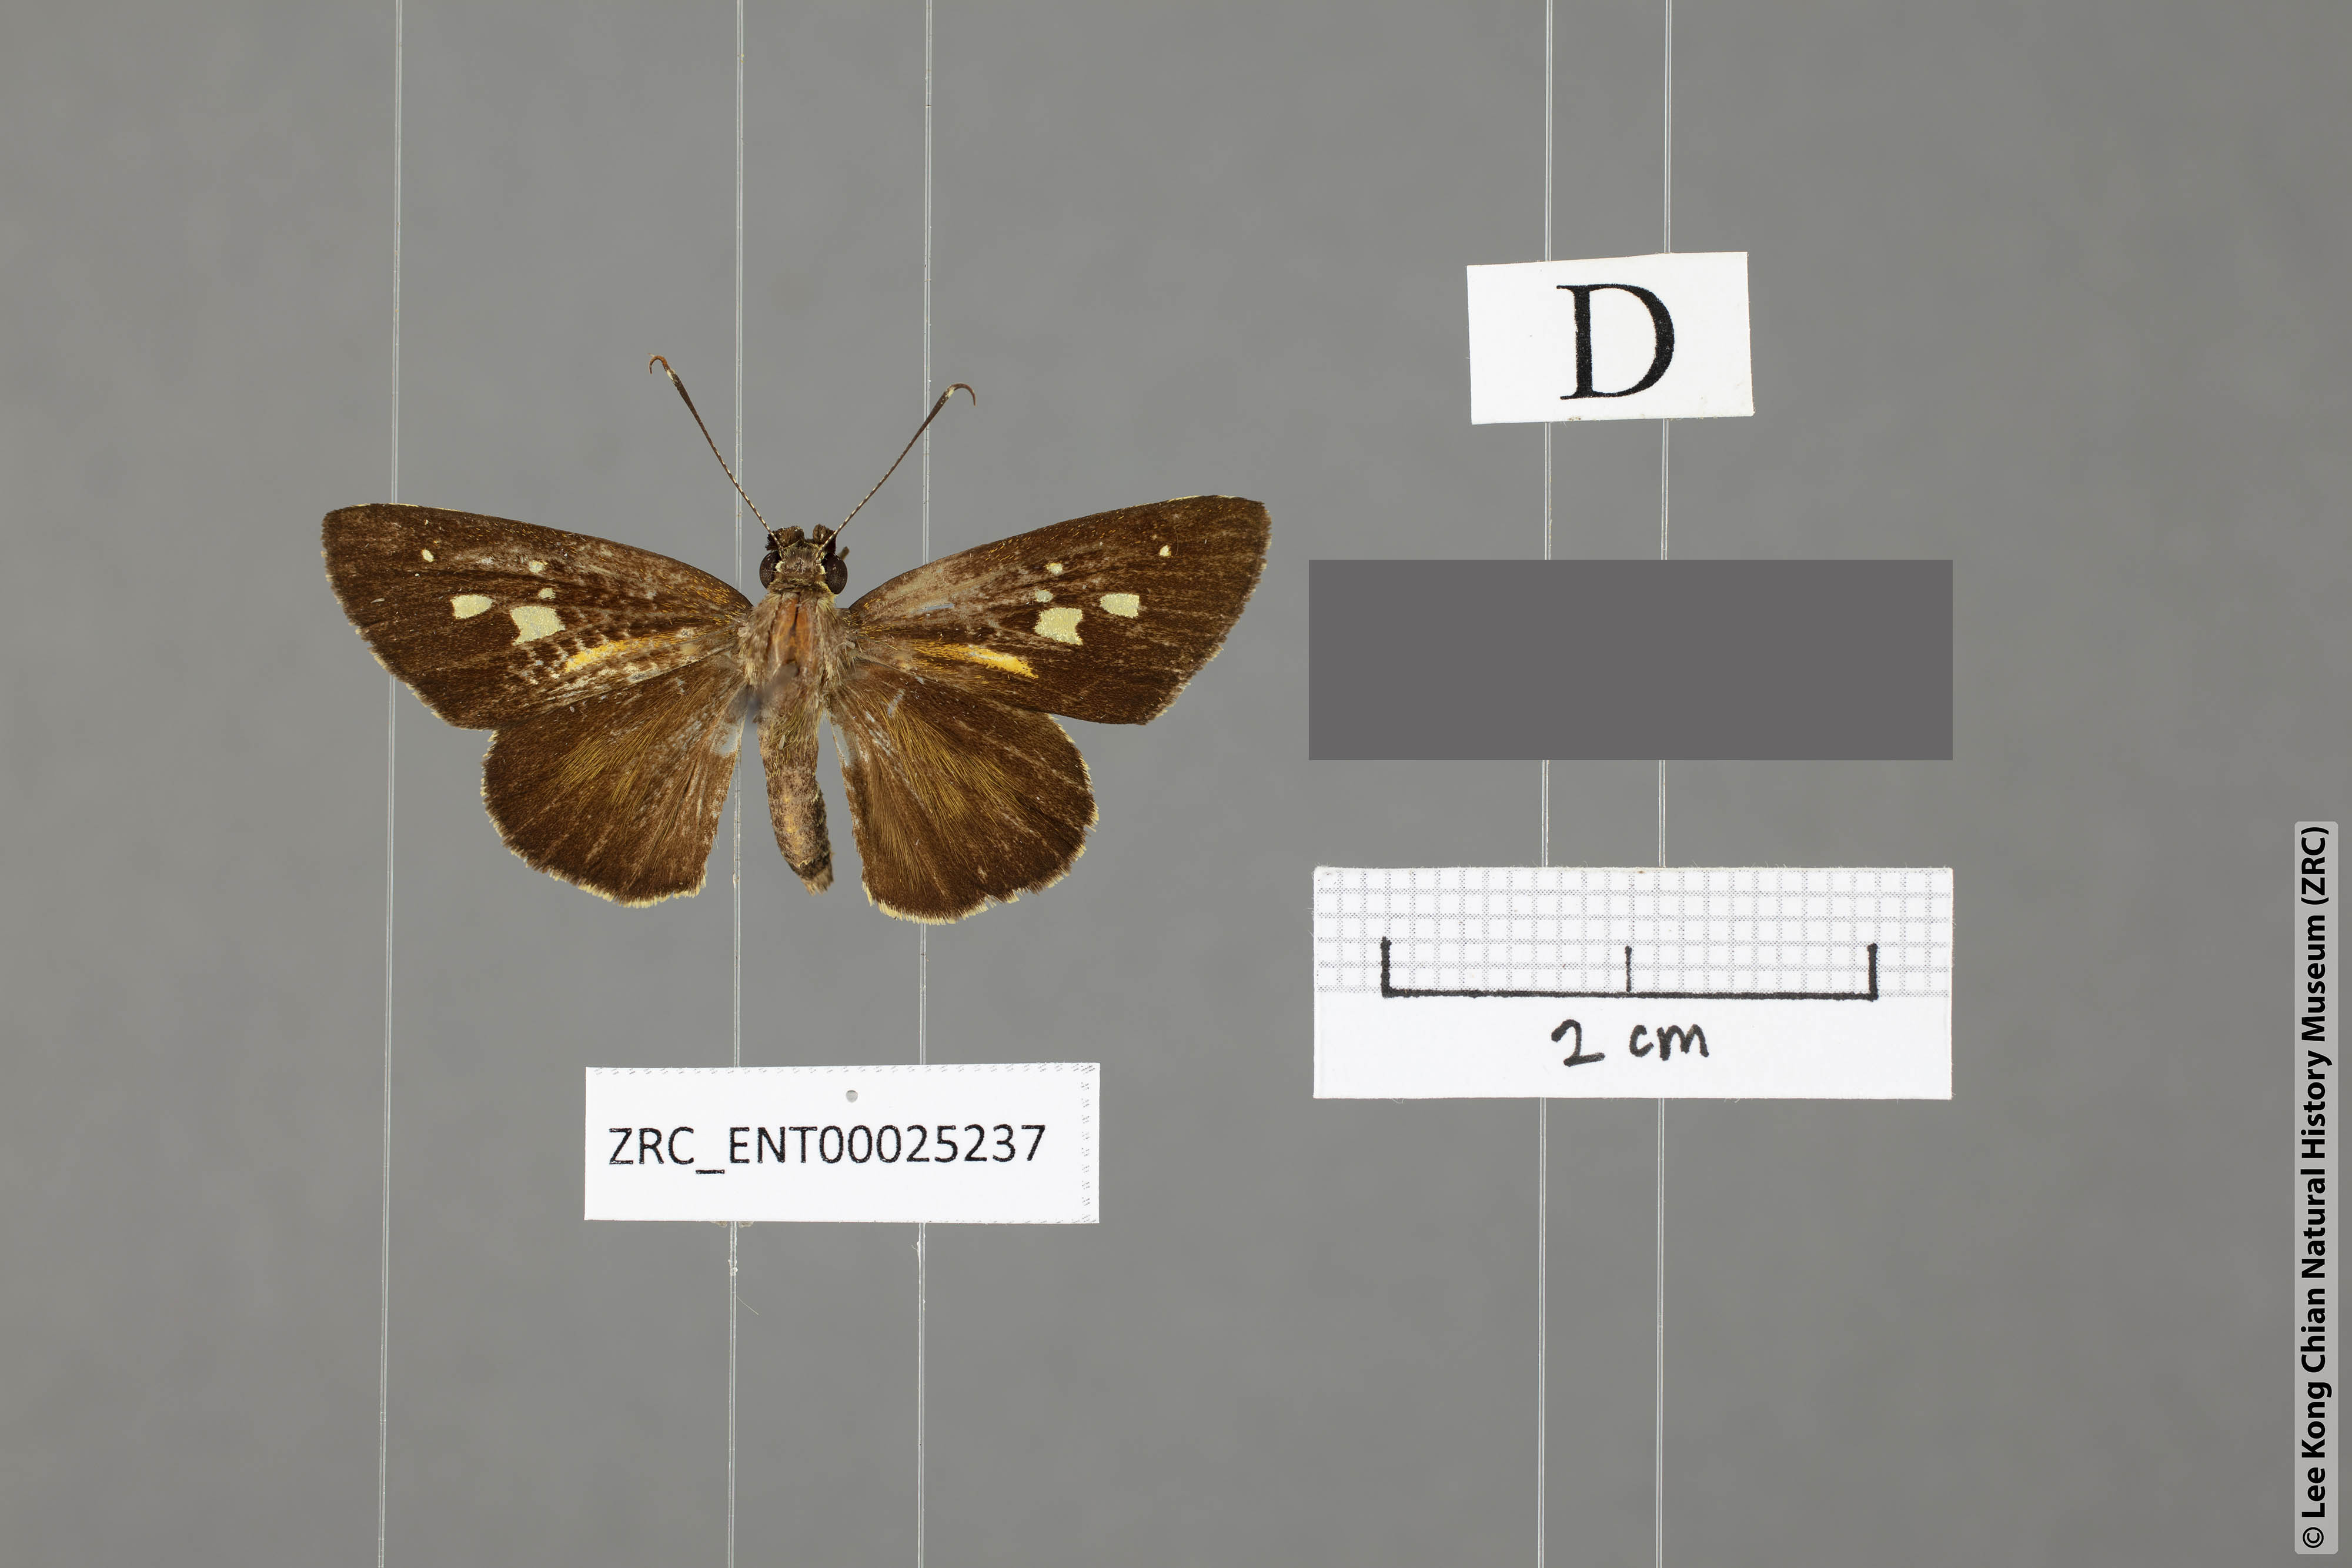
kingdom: Animalia
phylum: Arthropoda
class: Insecta
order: Lepidoptera
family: Hesperiidae
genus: Salanoemia
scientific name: Salanoemia fuscicornis
